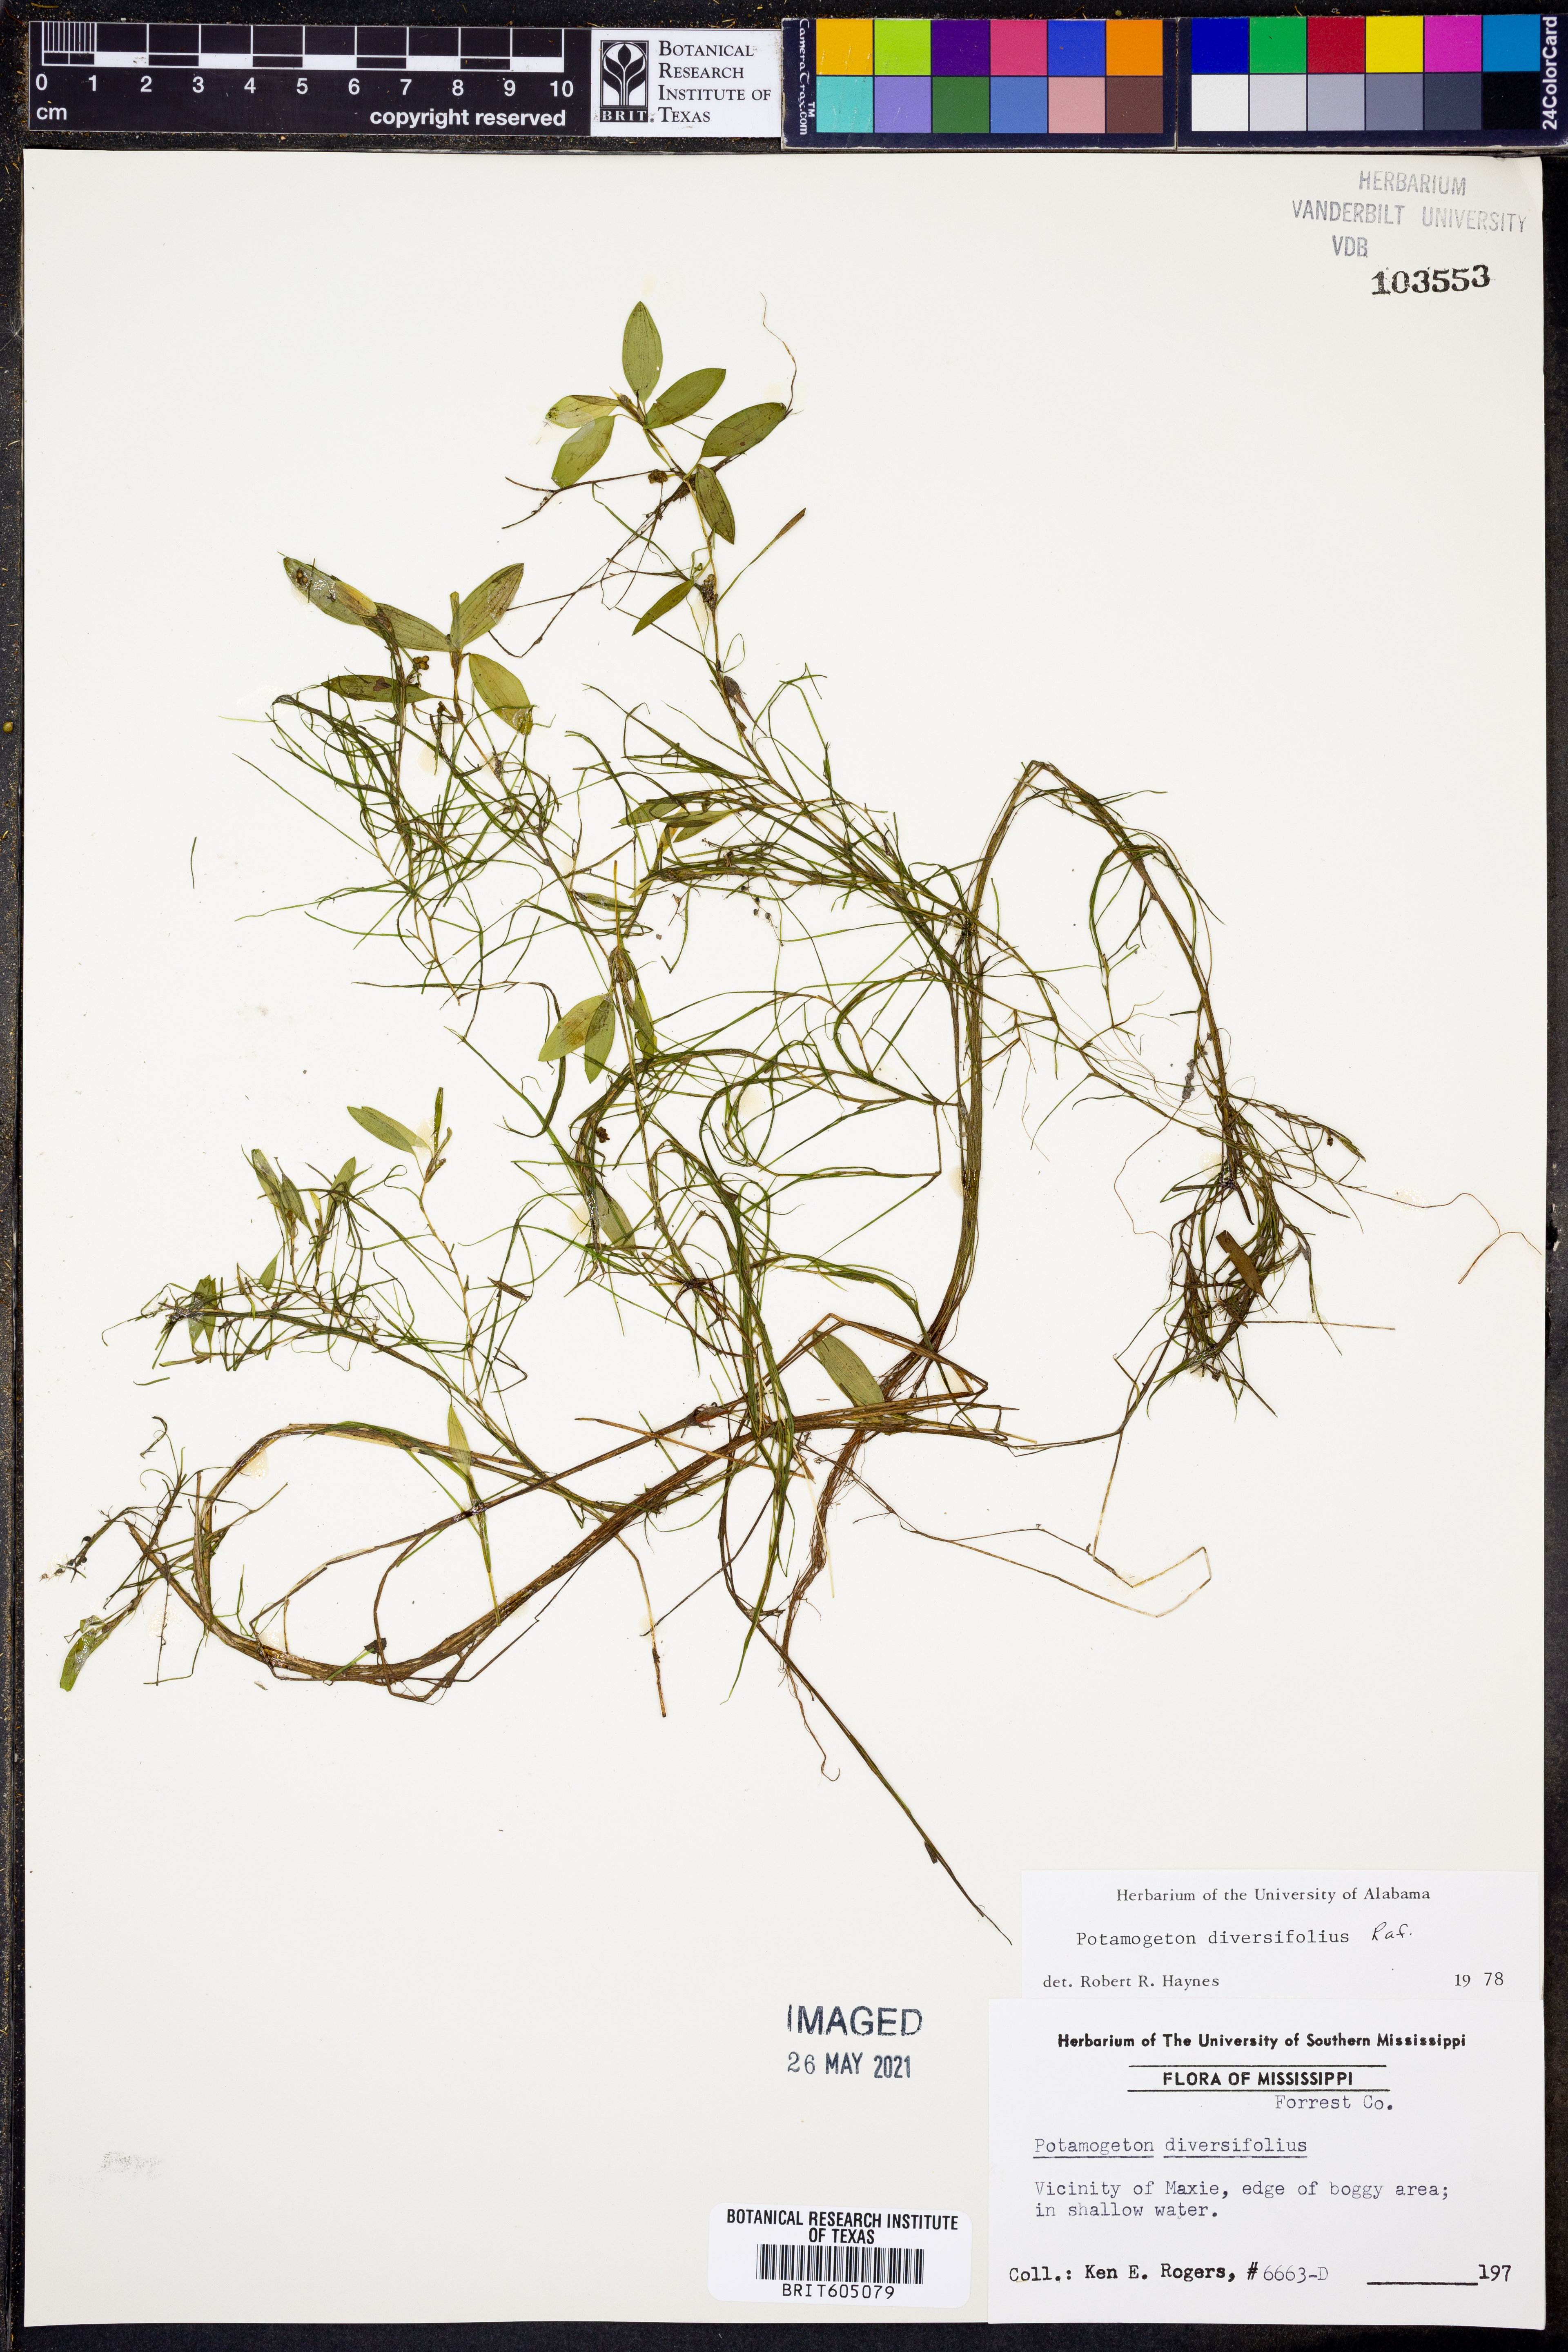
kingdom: Plantae
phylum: Tracheophyta
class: Liliopsida
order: Alismatales
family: Potamogetonaceae
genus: Potamogeton
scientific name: Potamogeton diversifolius
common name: Water-thread pondweed
